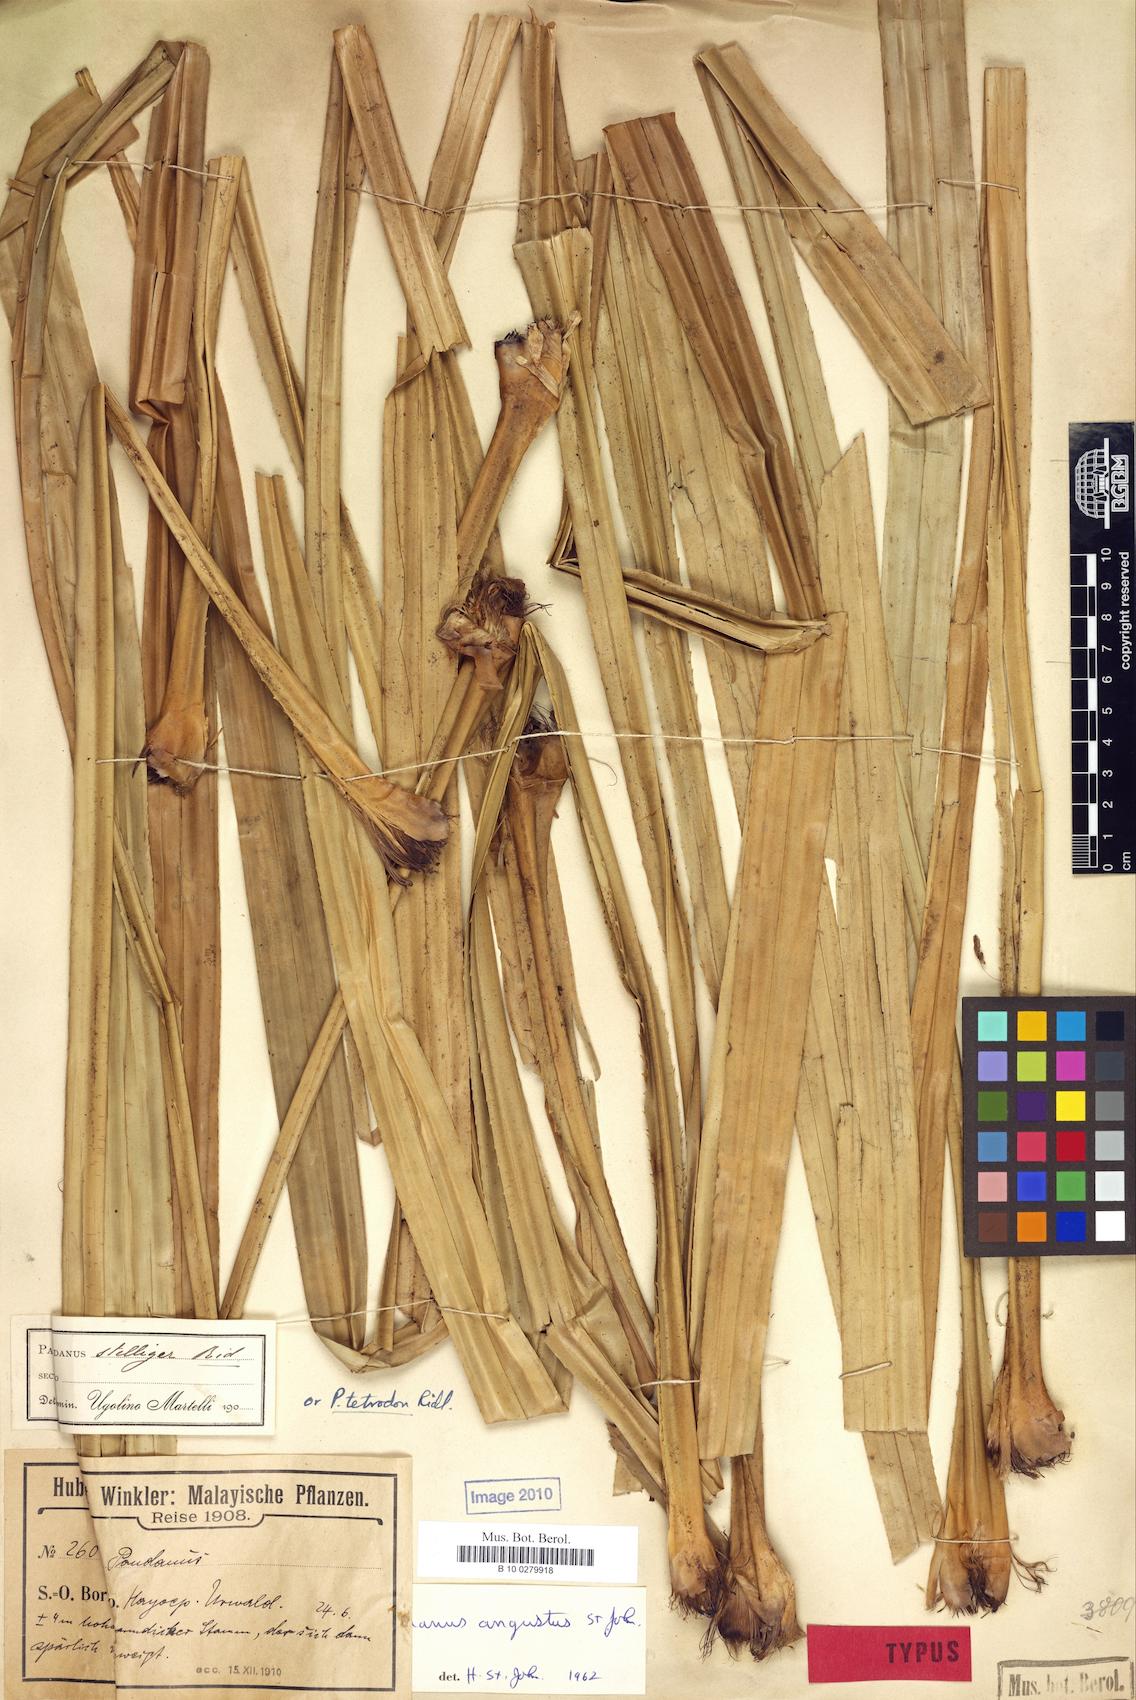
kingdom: Plantae
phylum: Tracheophyta
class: Liliopsida
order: Pandanales
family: Pandanaceae
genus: Pandanus
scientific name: Pandanus borneensis
